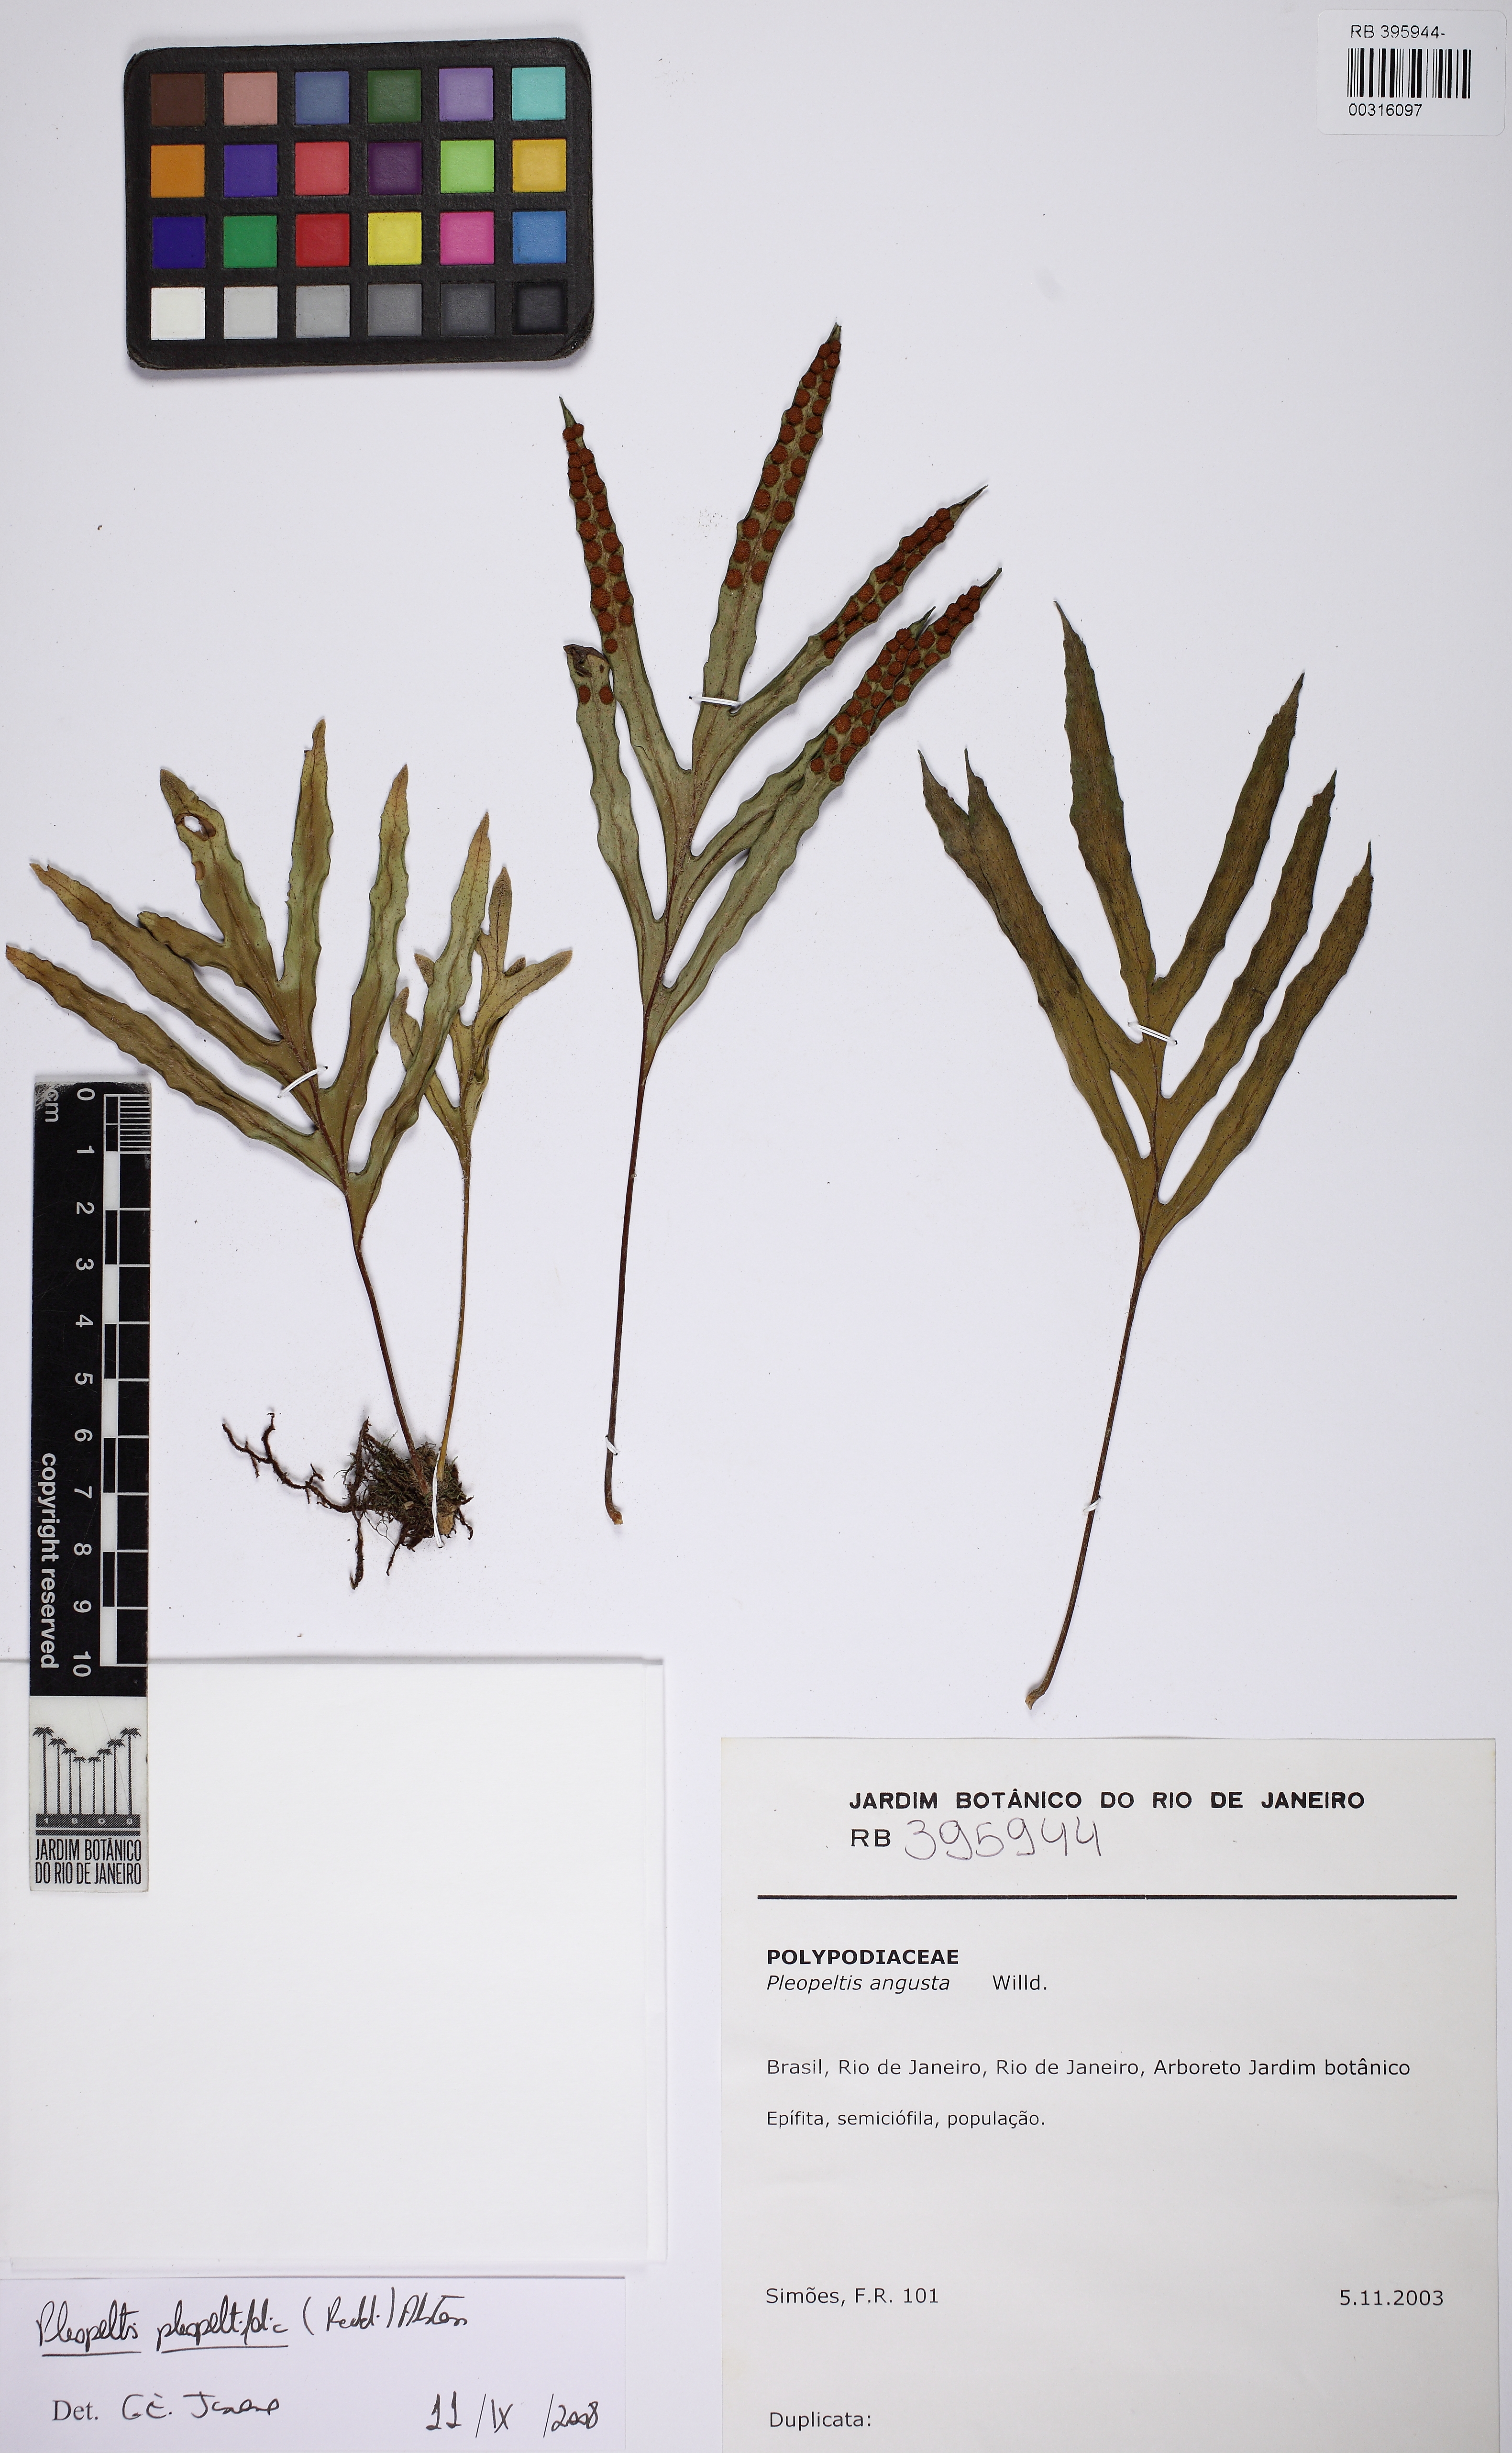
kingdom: Plantae
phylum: Tracheophyta
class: Polypodiopsida
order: Polypodiales
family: Polypodiaceae
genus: Pleopeltis
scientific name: Pleopeltis angusta
